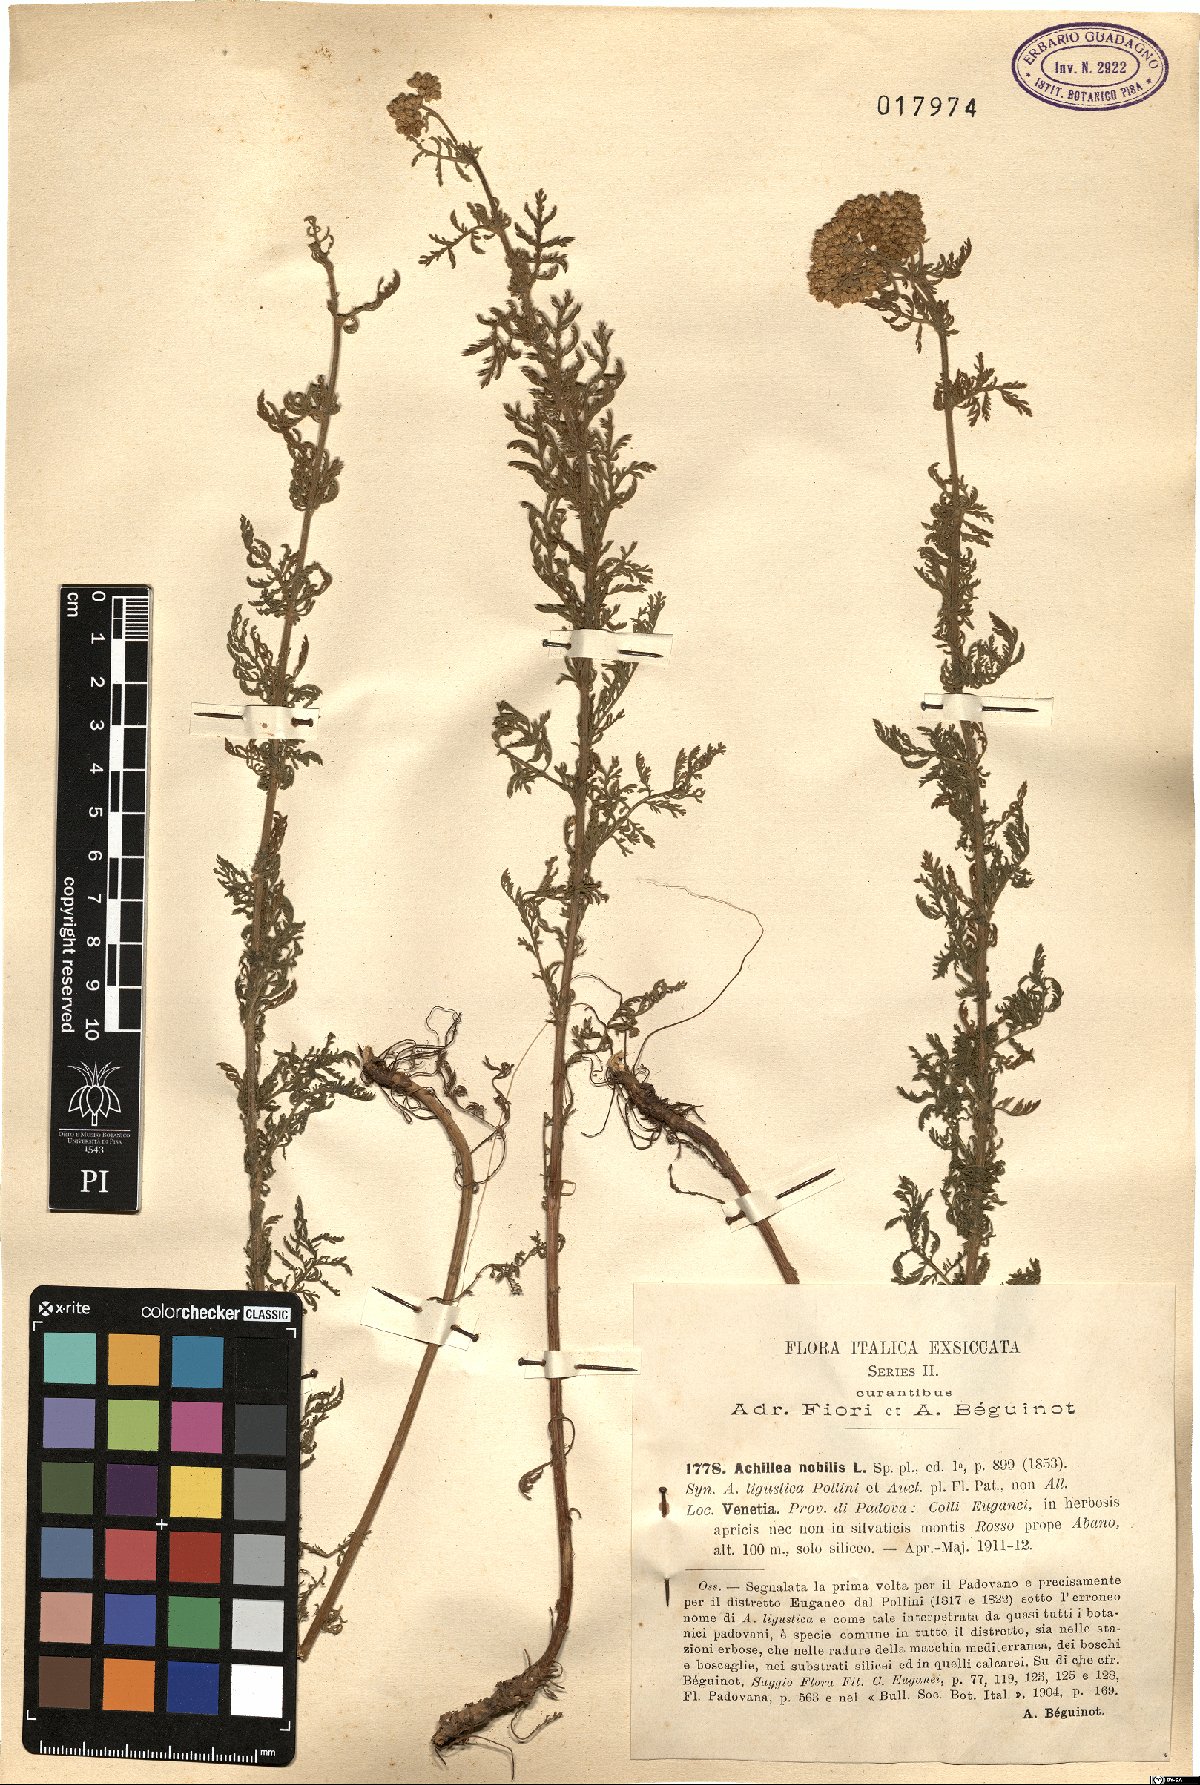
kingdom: Plantae
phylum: Tracheophyta
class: Magnoliopsida
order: Asterales
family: Asteraceae
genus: Achillea
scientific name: Achillea nobilis
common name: Noble yarrow
